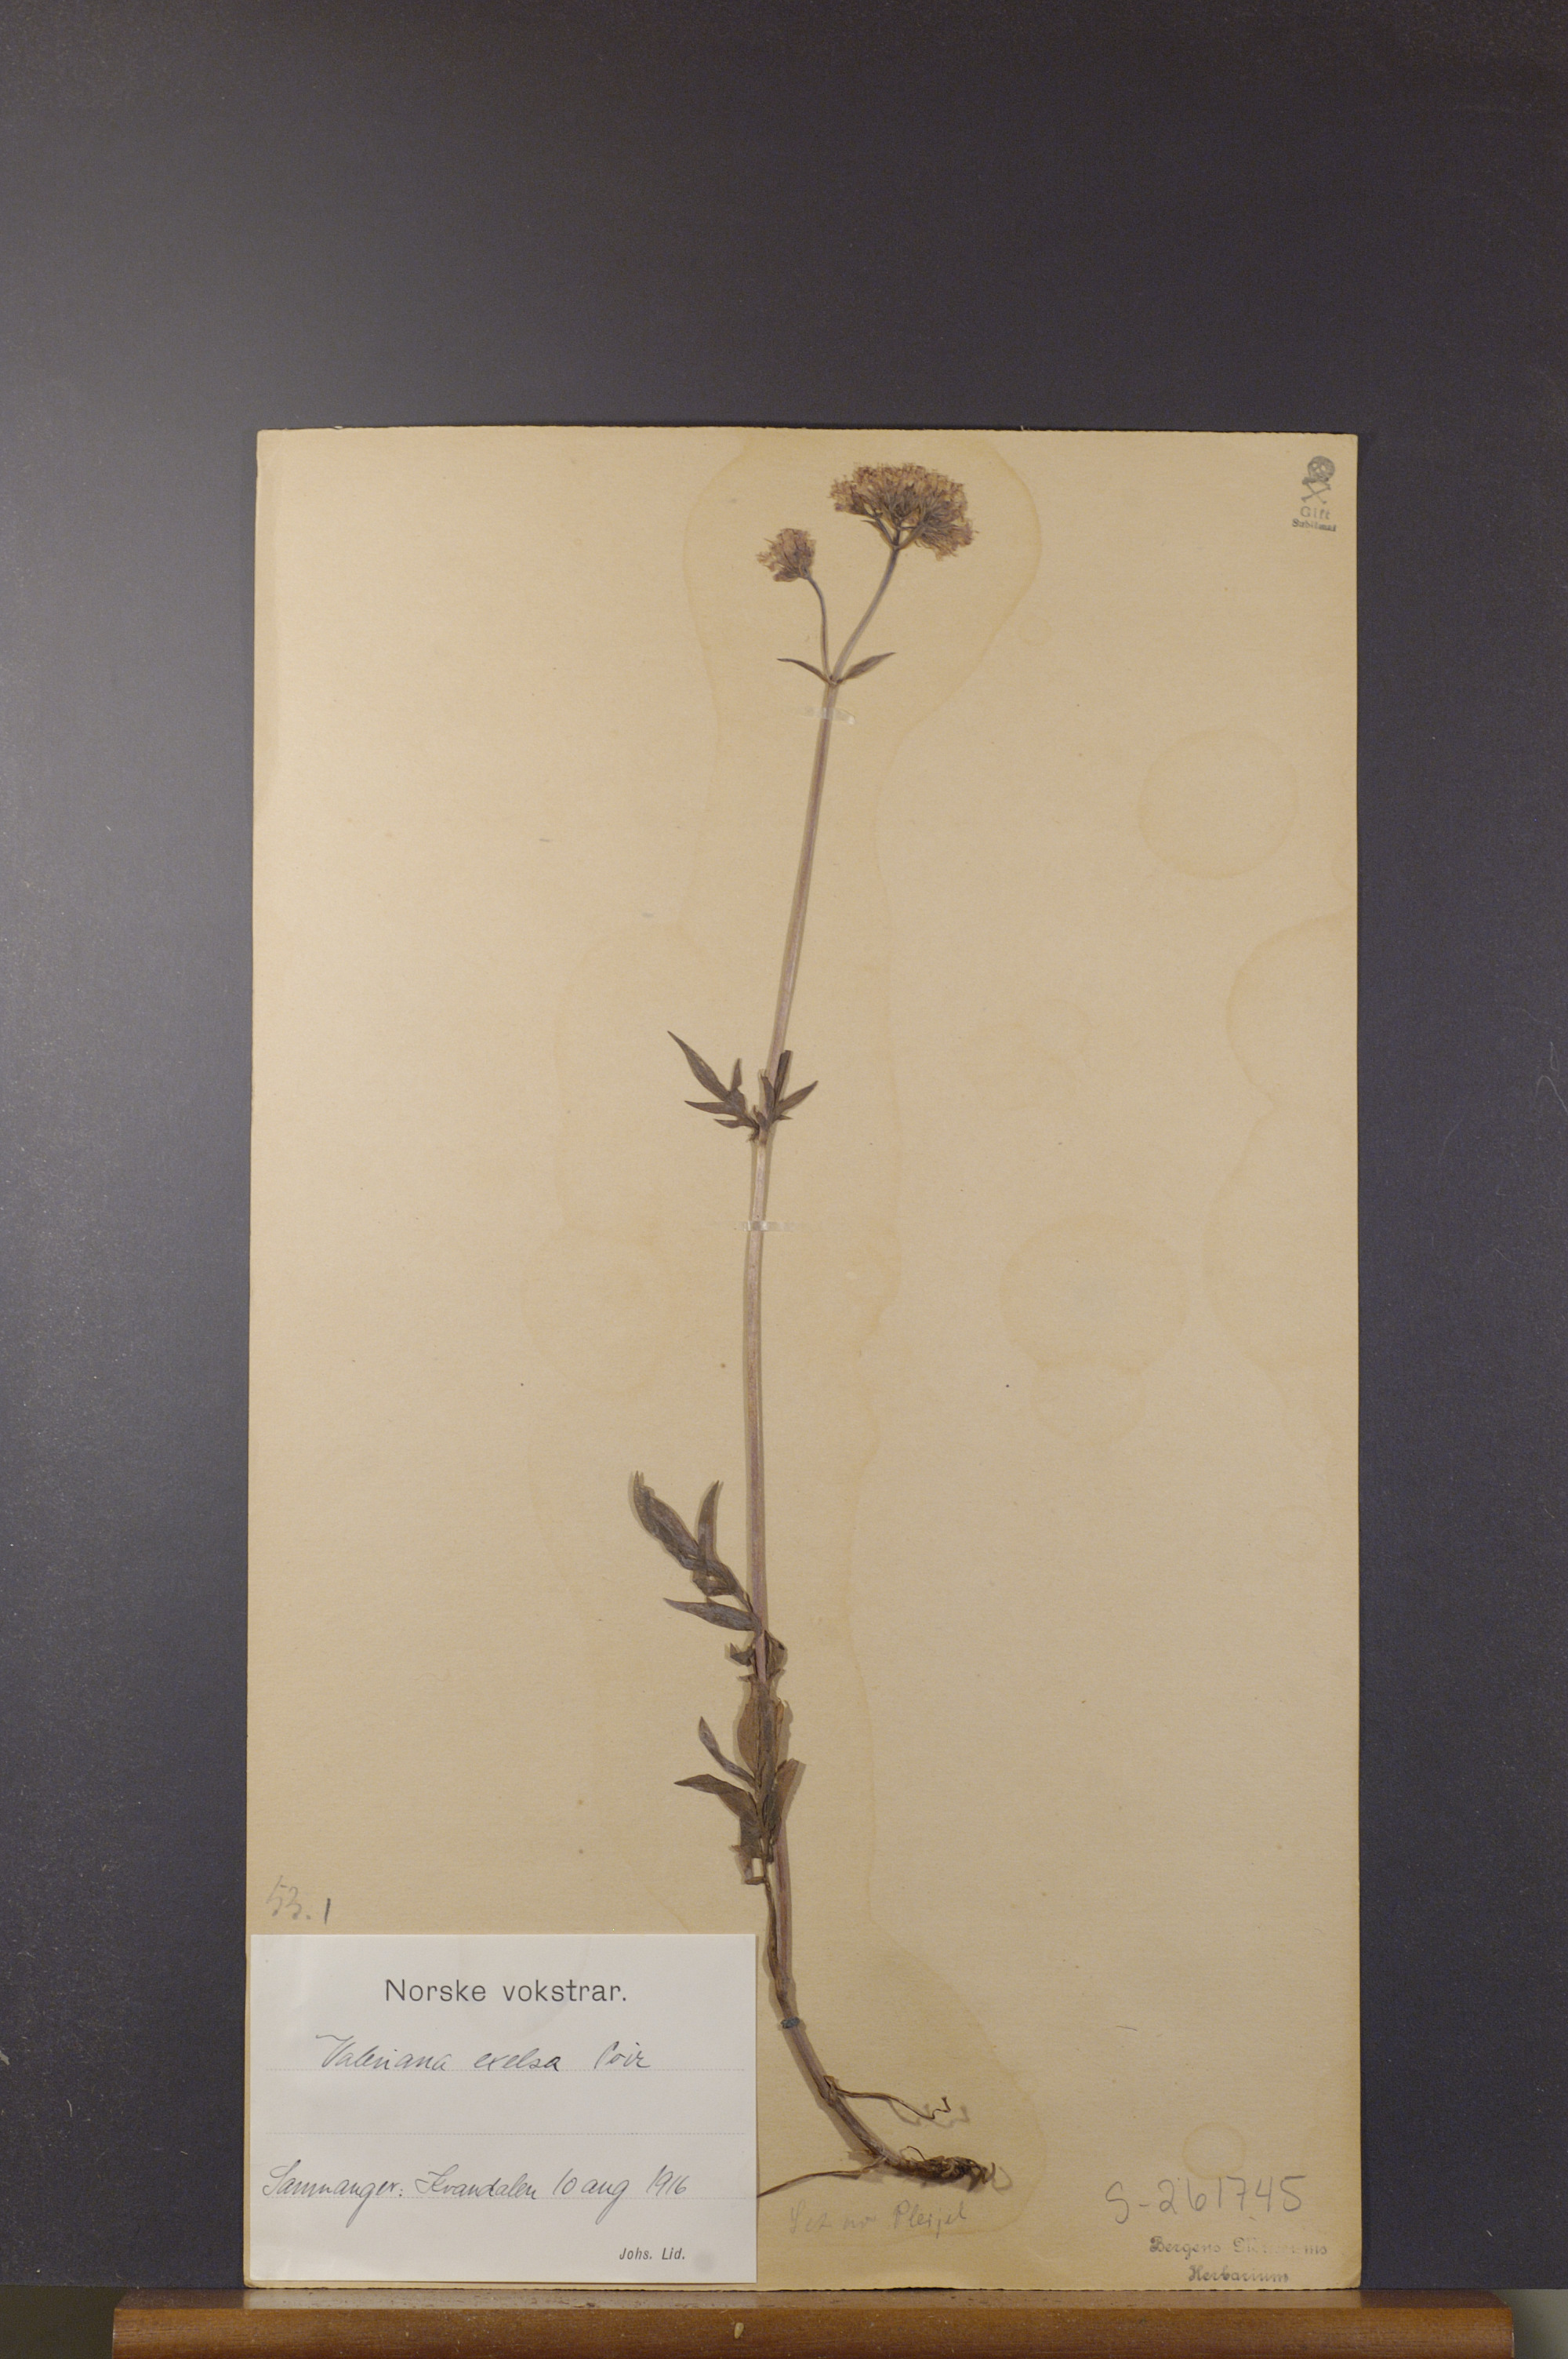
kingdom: Plantae
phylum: Tracheophyta
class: Magnoliopsida
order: Dipsacales
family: Caprifoliaceae
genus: Valeriana
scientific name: Valeriana sambucifolia
